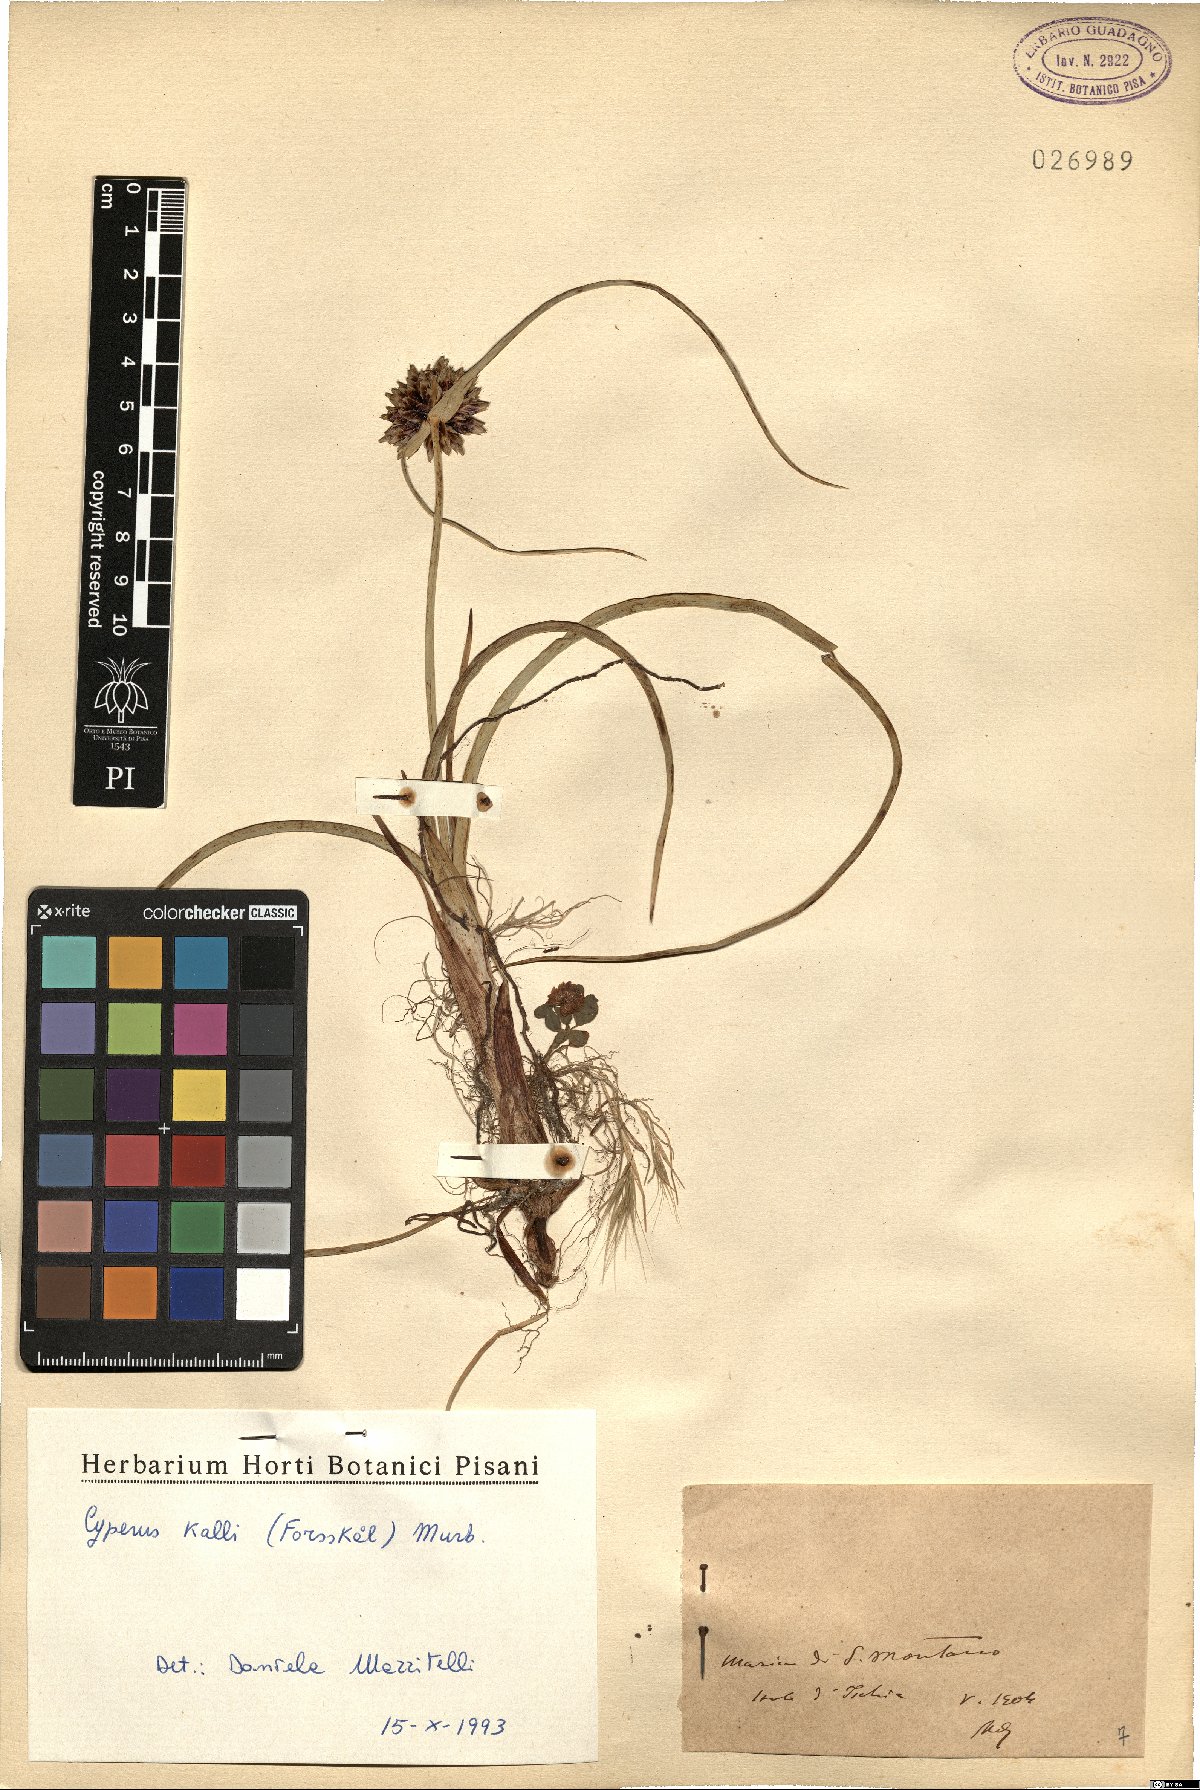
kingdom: Plantae
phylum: Tracheophyta
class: Liliopsida
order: Poales
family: Cyperaceae
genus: Cyperus
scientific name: Cyperus capitatus
